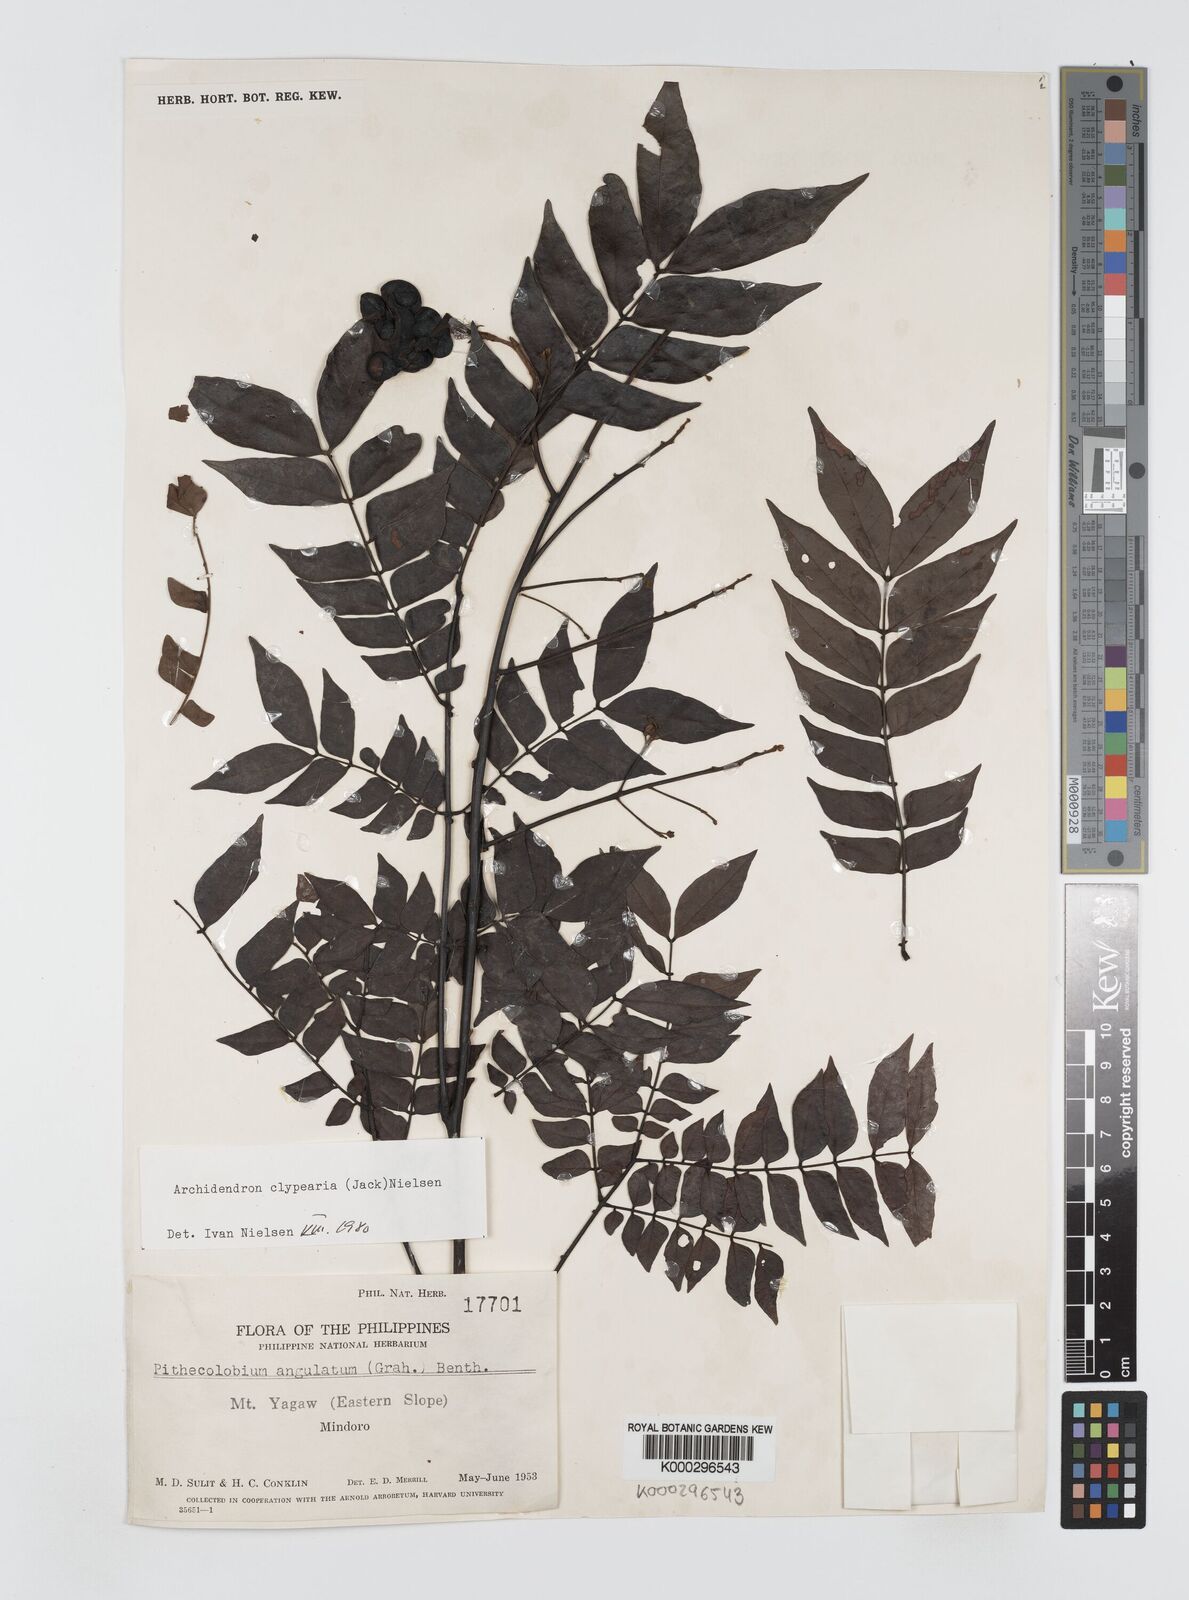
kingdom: Plantae
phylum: Tracheophyta
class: Magnoliopsida
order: Fabales
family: Fabaceae
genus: Archidendron
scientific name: Archidendron clypearia
